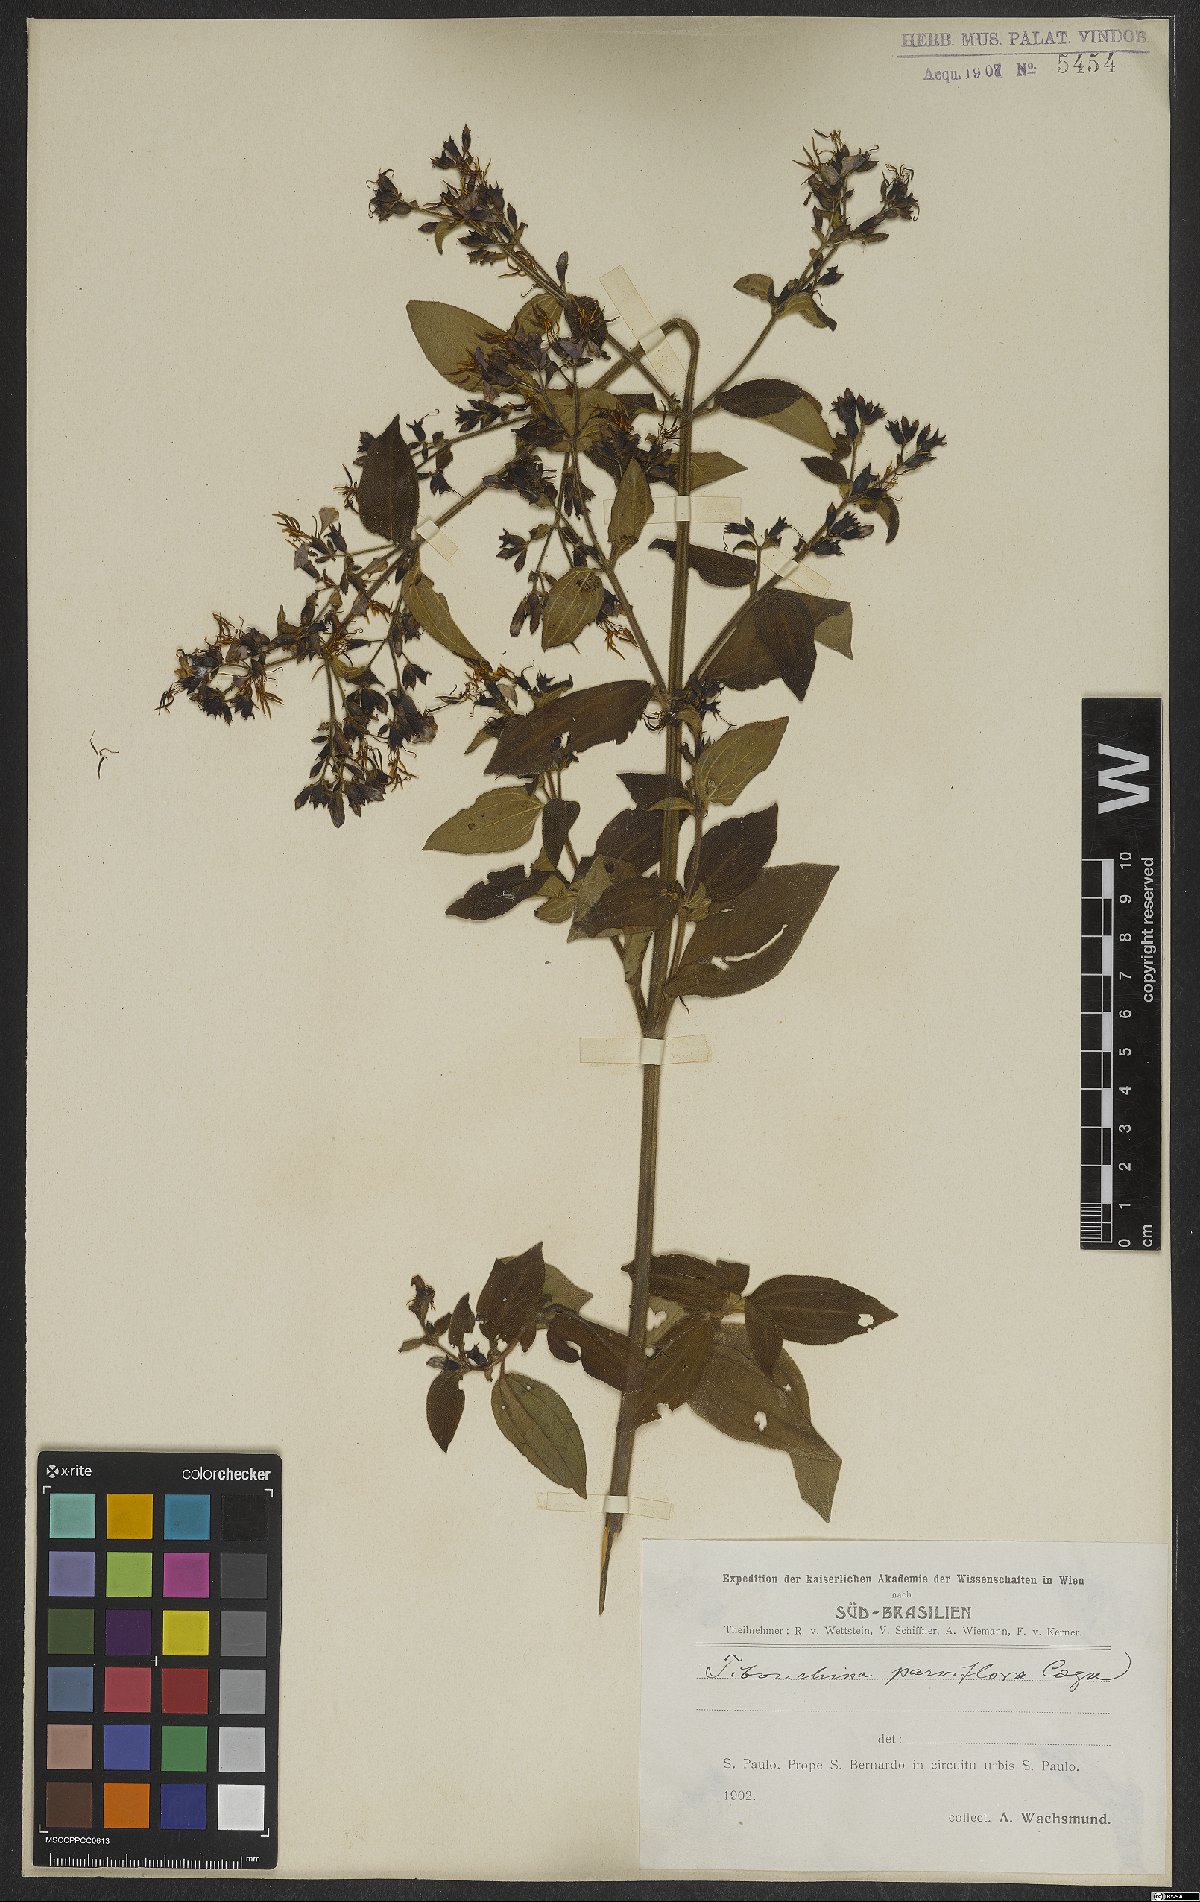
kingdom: Plantae
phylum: Tracheophyta
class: Magnoliopsida
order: Myrtales
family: Melastomataceae
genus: Chaetogastra
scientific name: Chaetogastra parviflora
